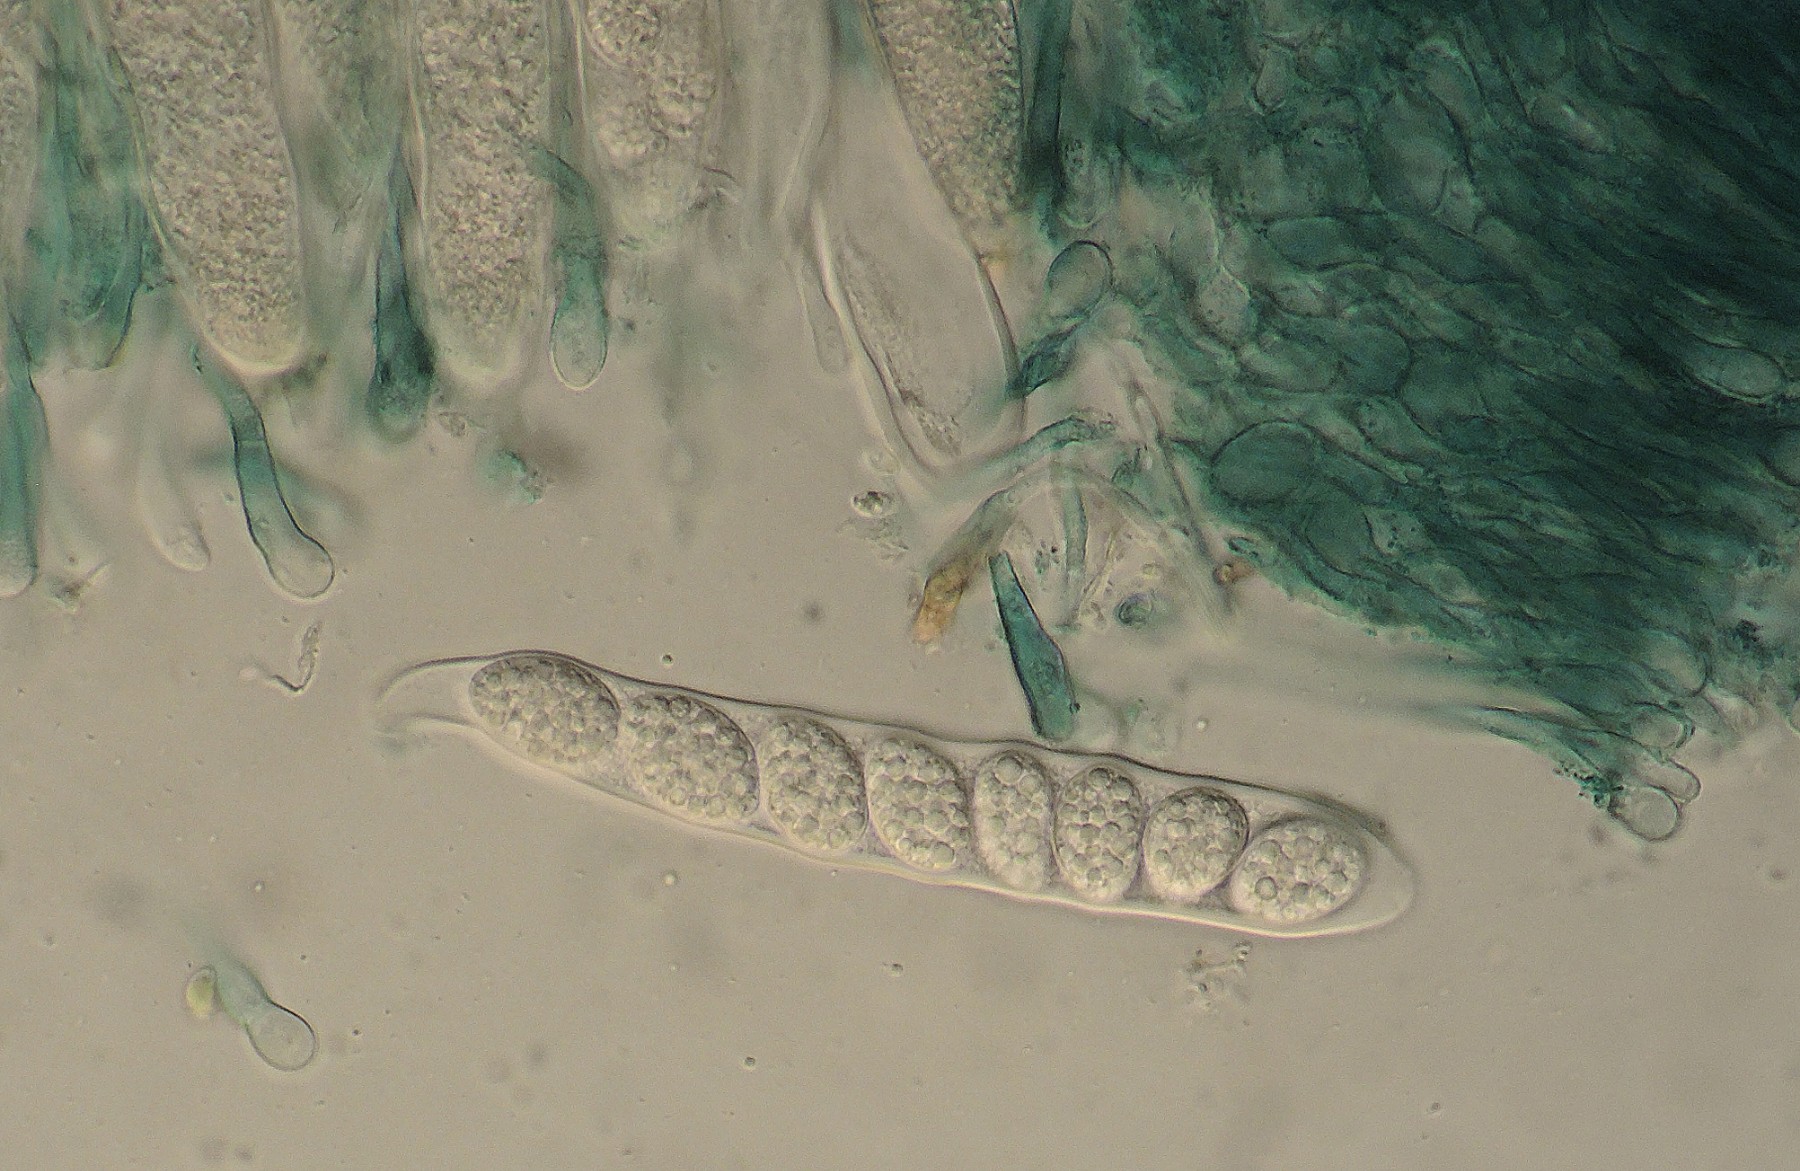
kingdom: Fungi
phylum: Ascomycota
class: Leotiomycetes
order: Leotiales
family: Mniaeciaceae
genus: Mniaecia
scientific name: Mniaecia jungermanniae
